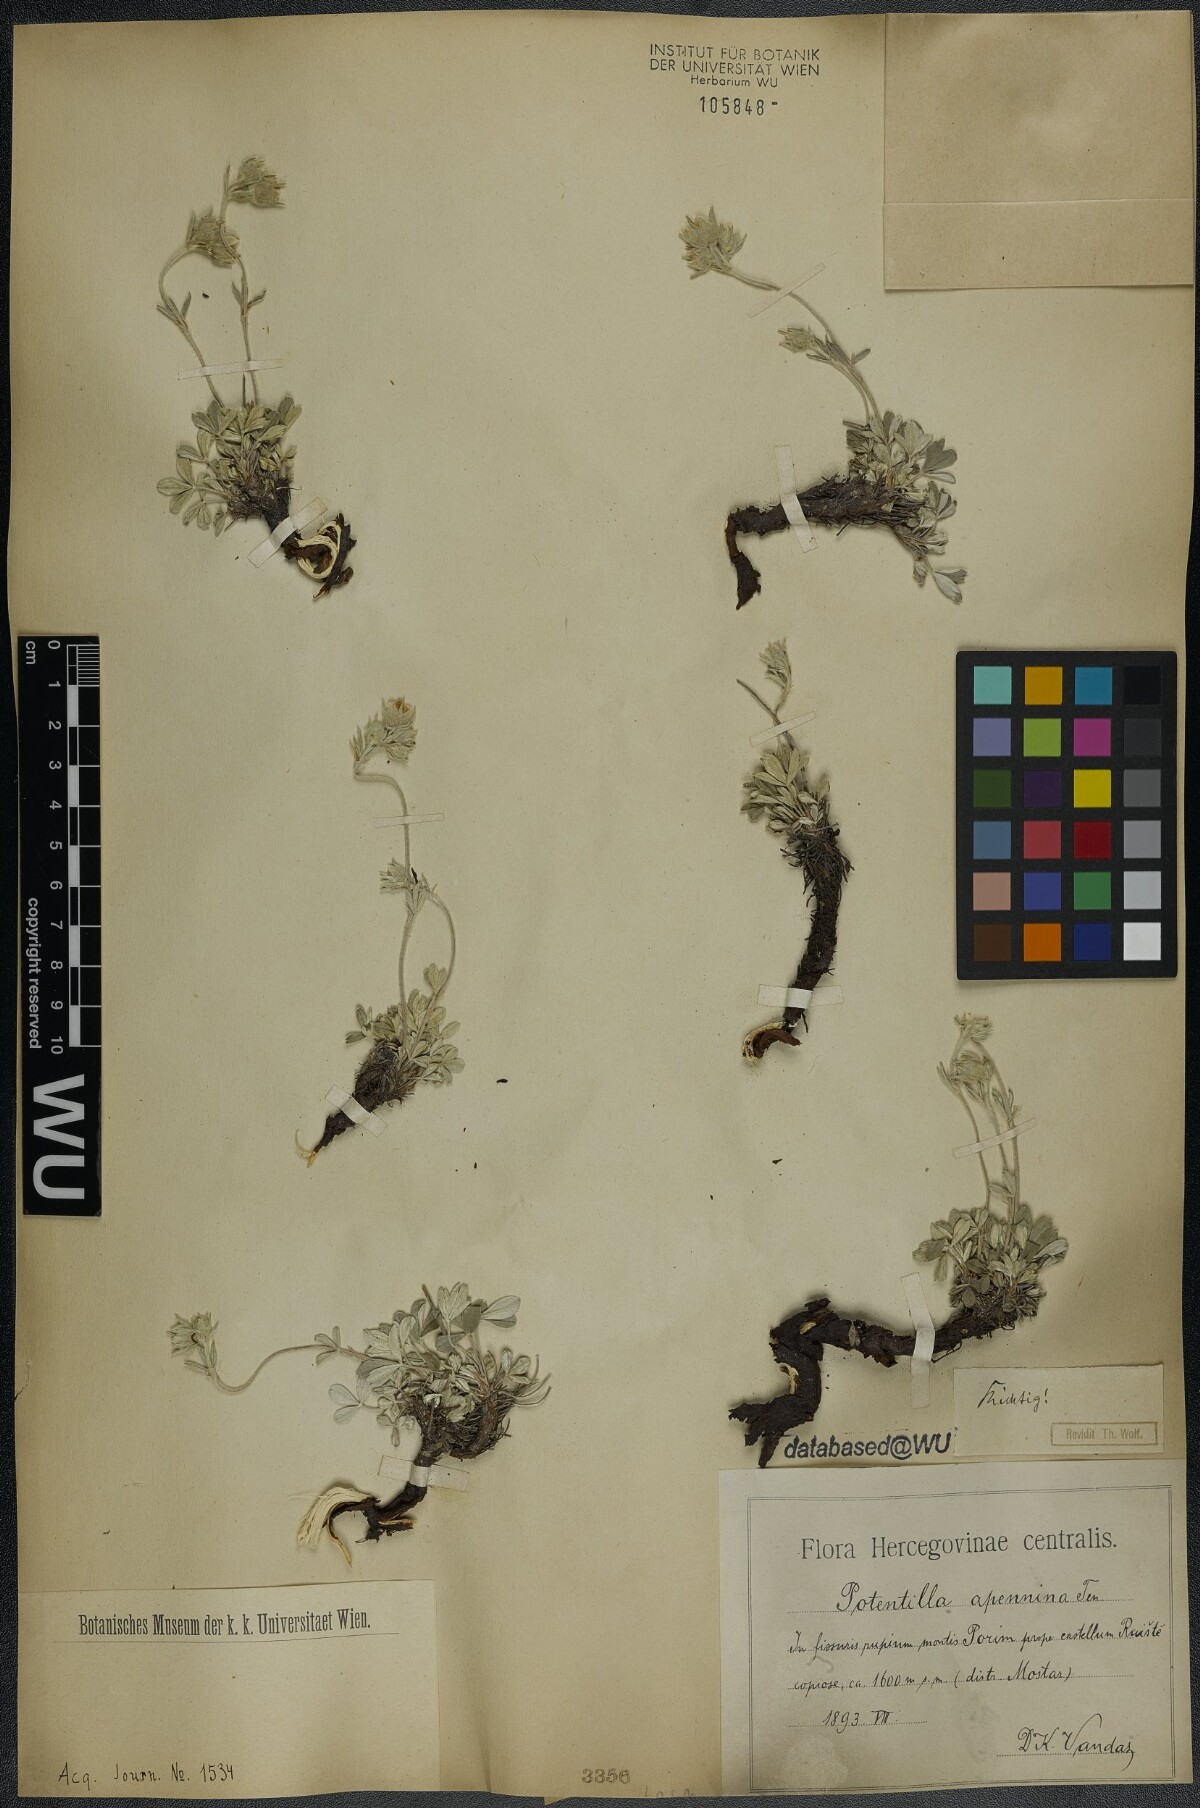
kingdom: Plantae
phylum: Tracheophyta
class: Magnoliopsida
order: Rosales
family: Rosaceae
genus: Potentilla
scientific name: Potentilla apennina
